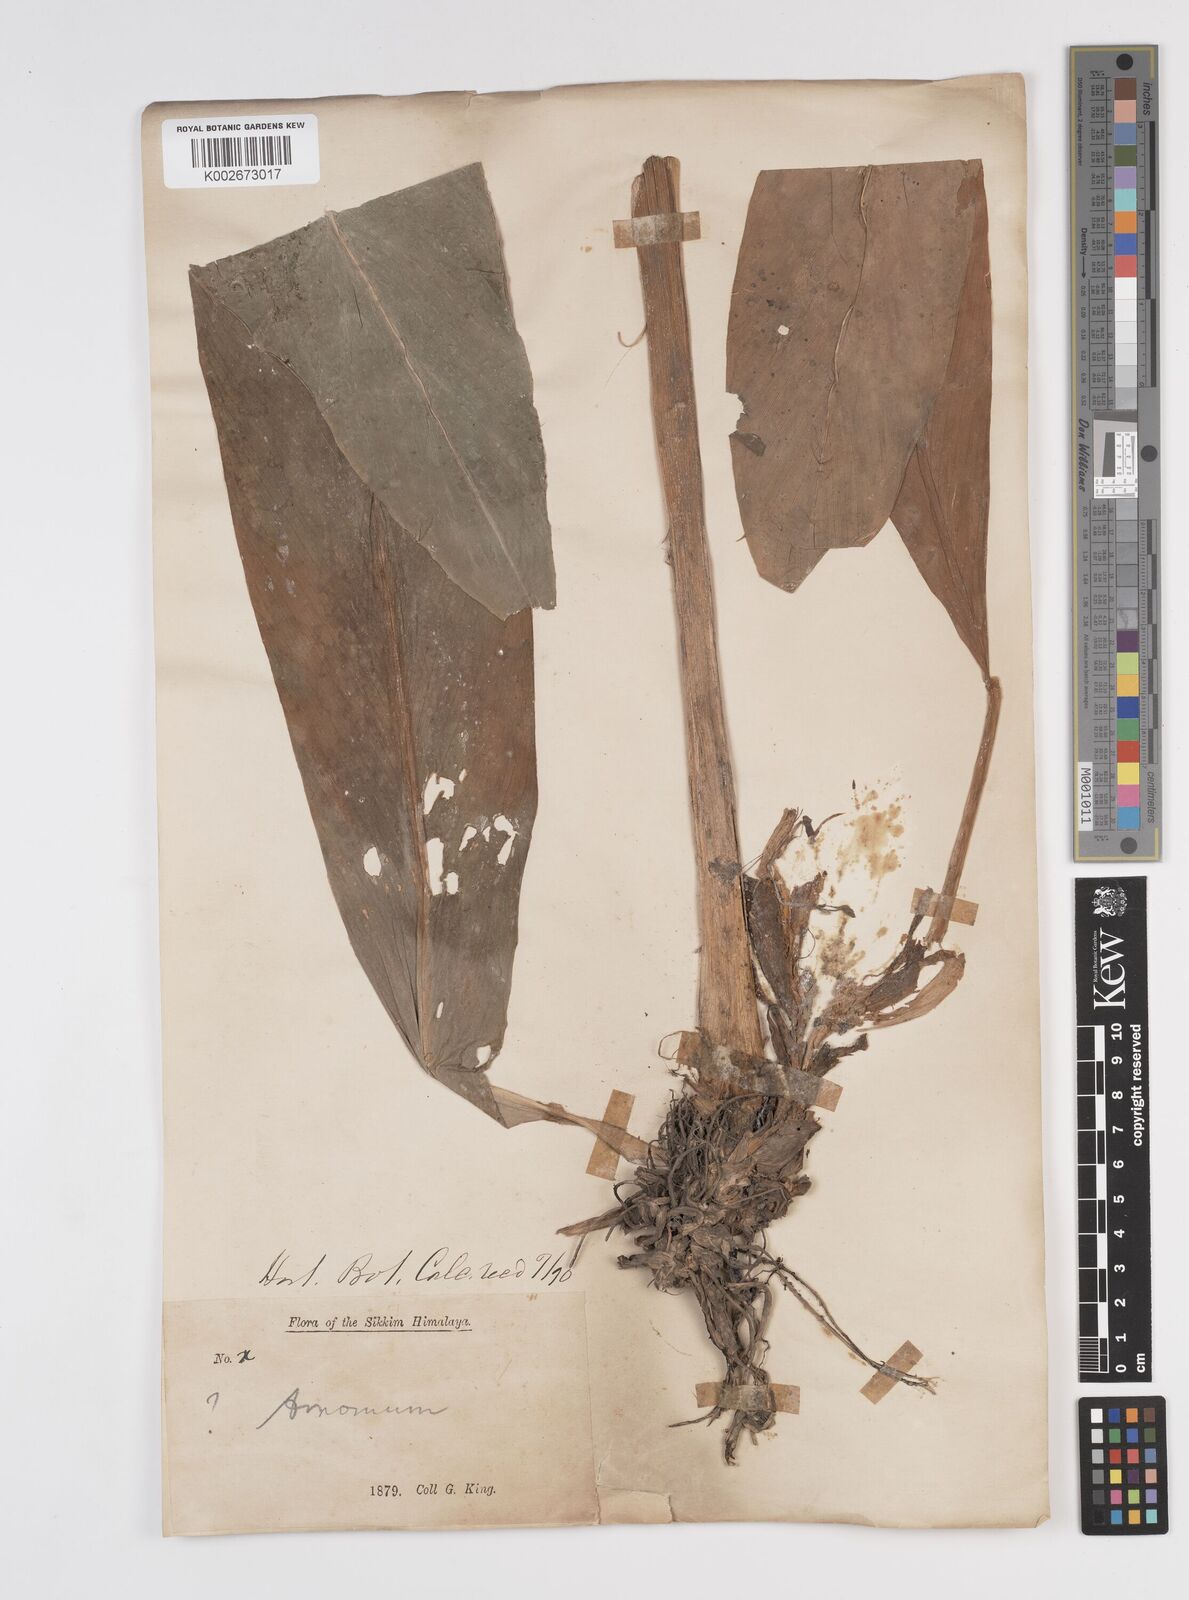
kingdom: Plantae
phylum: Tracheophyta
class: Liliopsida
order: Zingiberales
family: Zingiberaceae
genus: Amomum
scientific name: Amomum dealbatum
